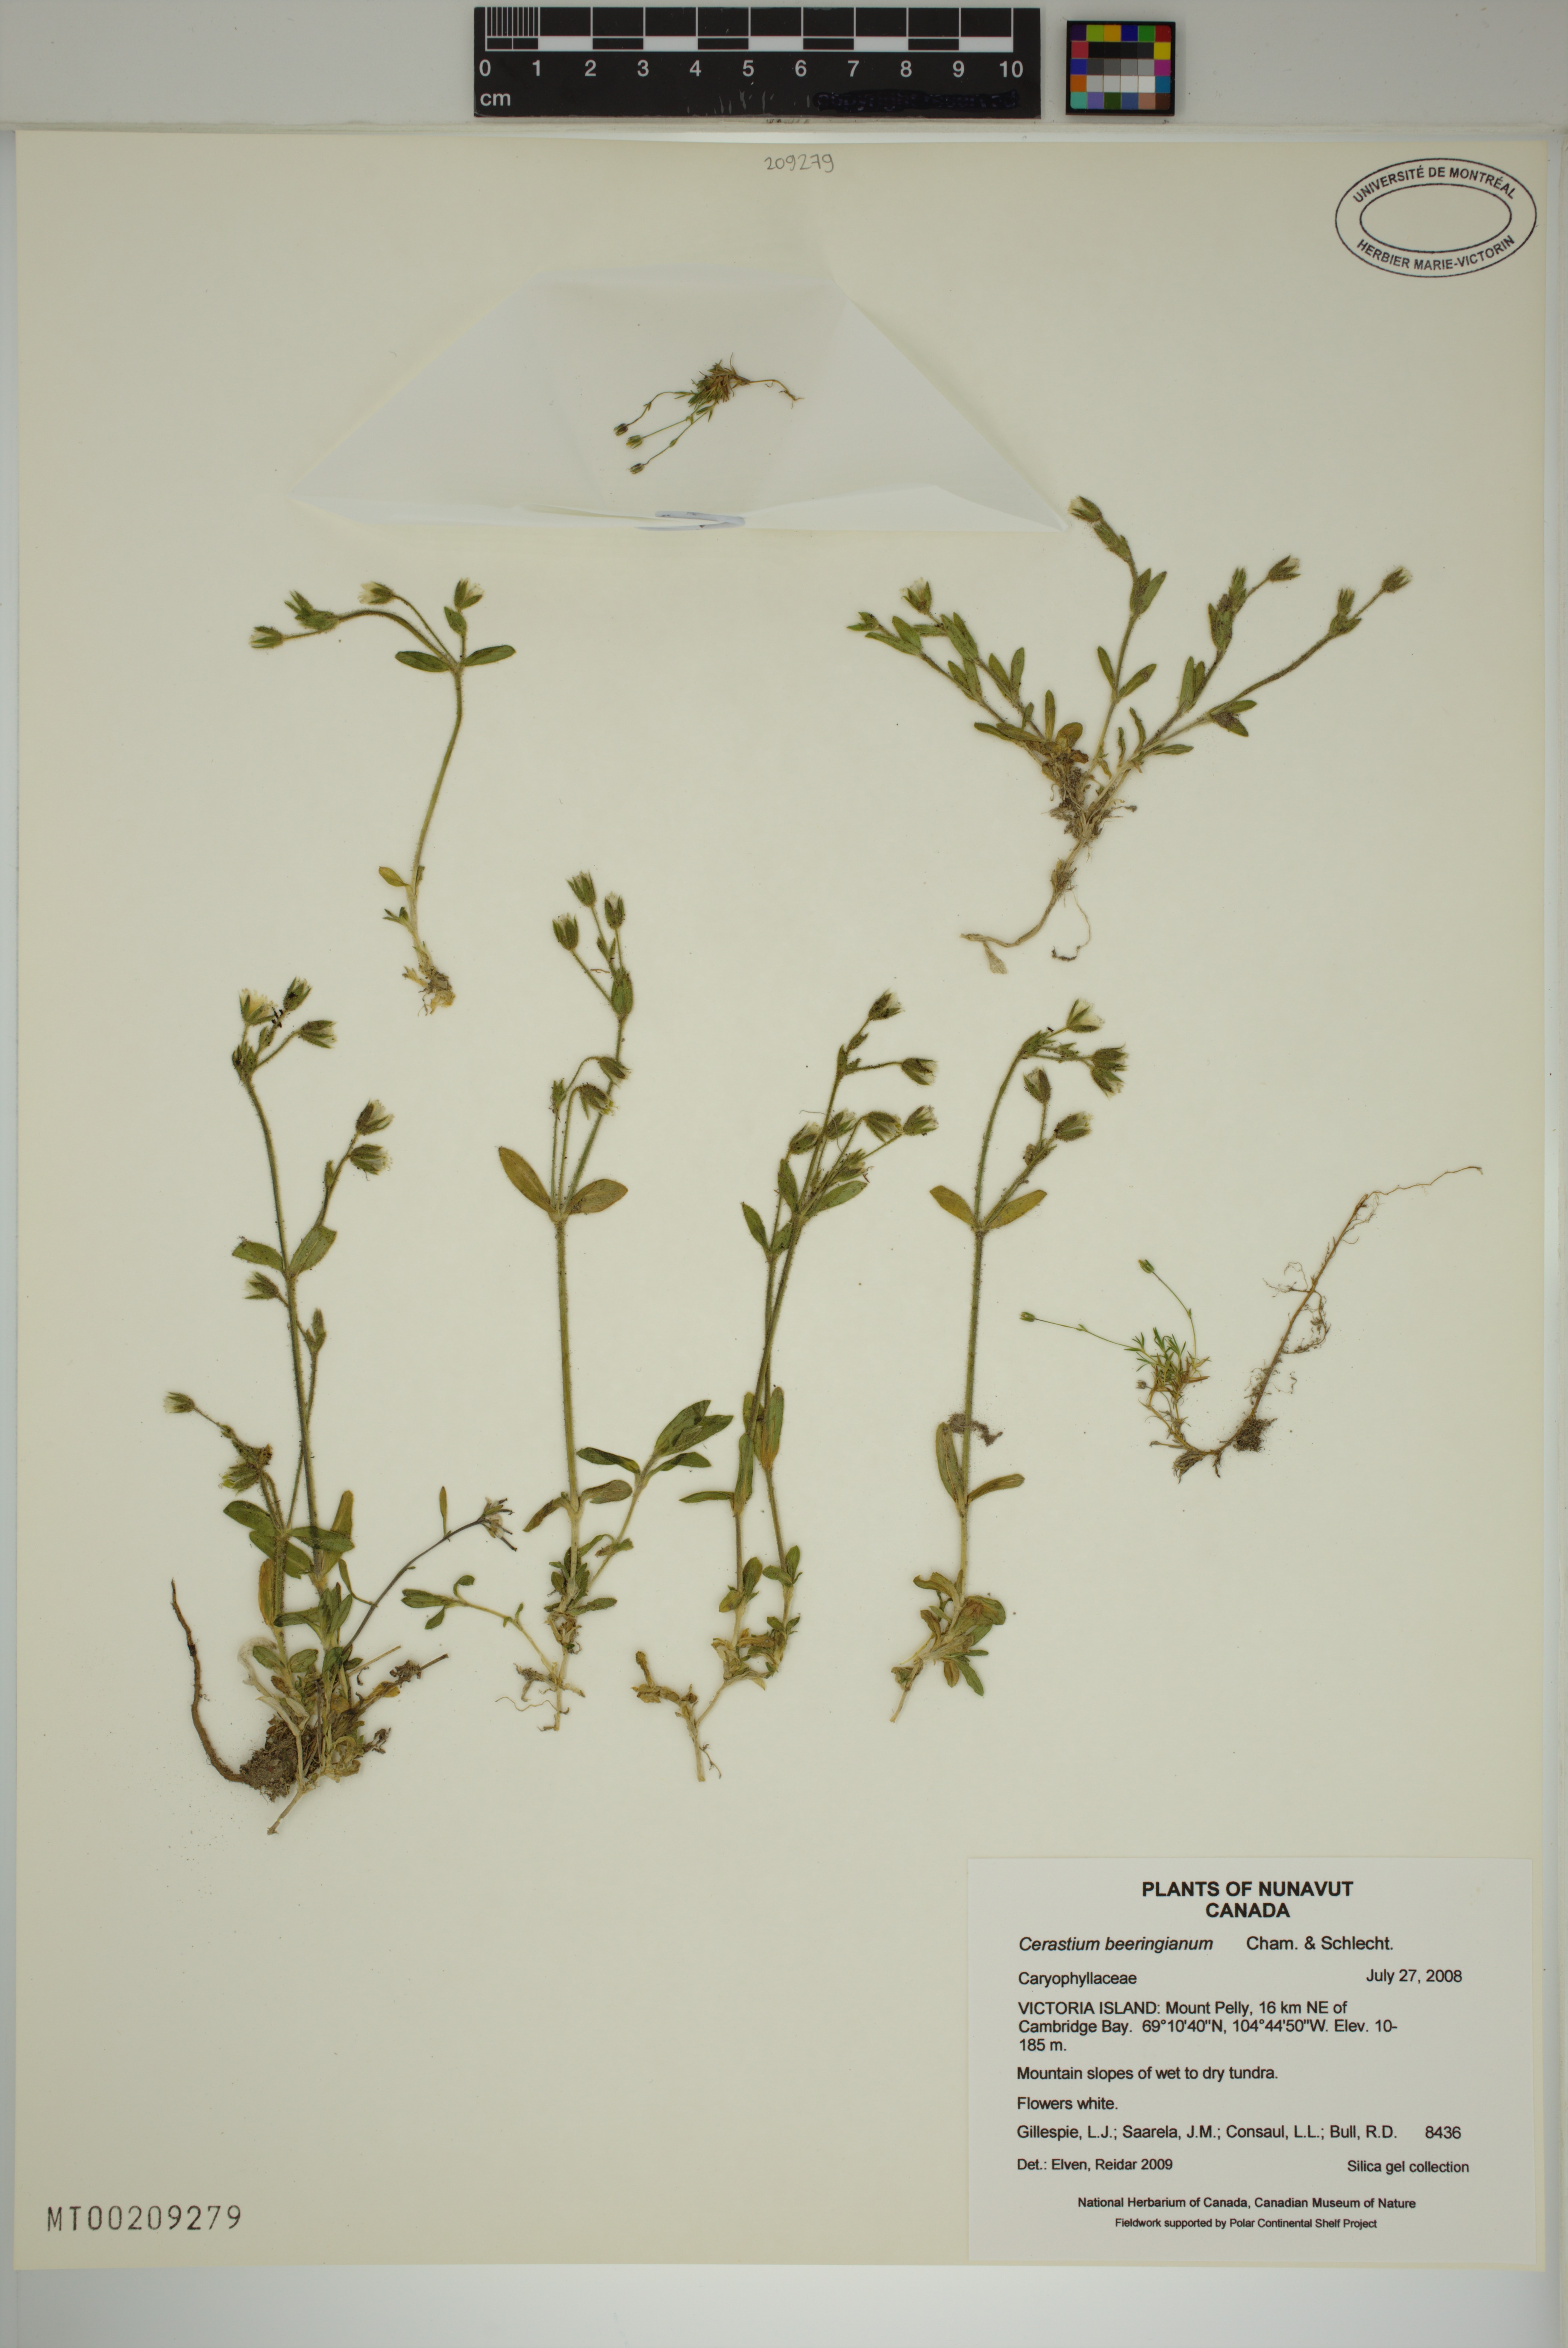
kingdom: Plantae
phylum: Tracheophyta
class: Magnoliopsida
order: Caryophyllales
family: Caryophyllaceae
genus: Cerastium
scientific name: Cerastium beeringianum
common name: Bering mouse-ear chickweed
